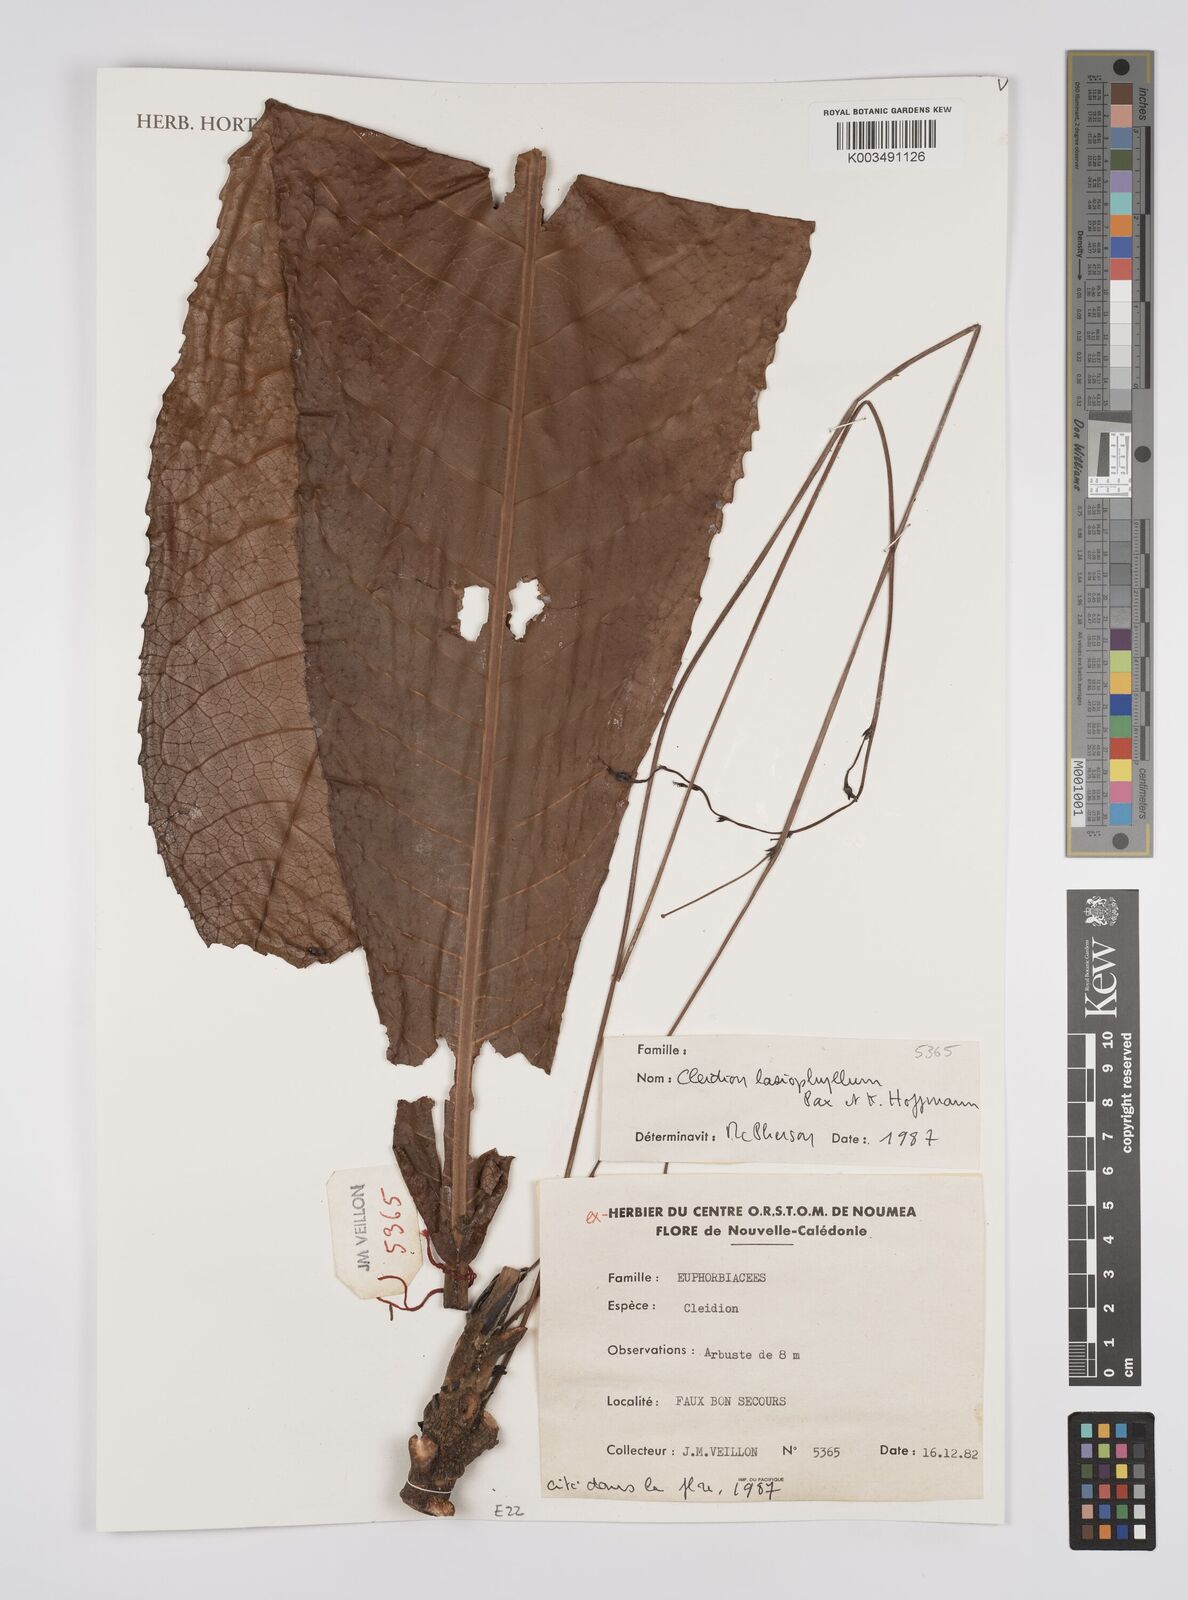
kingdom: Plantae
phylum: Tracheophyta
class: Magnoliopsida
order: Malpighiales
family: Euphorbiaceae
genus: Cleidion
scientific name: Cleidion lasiophyllum
